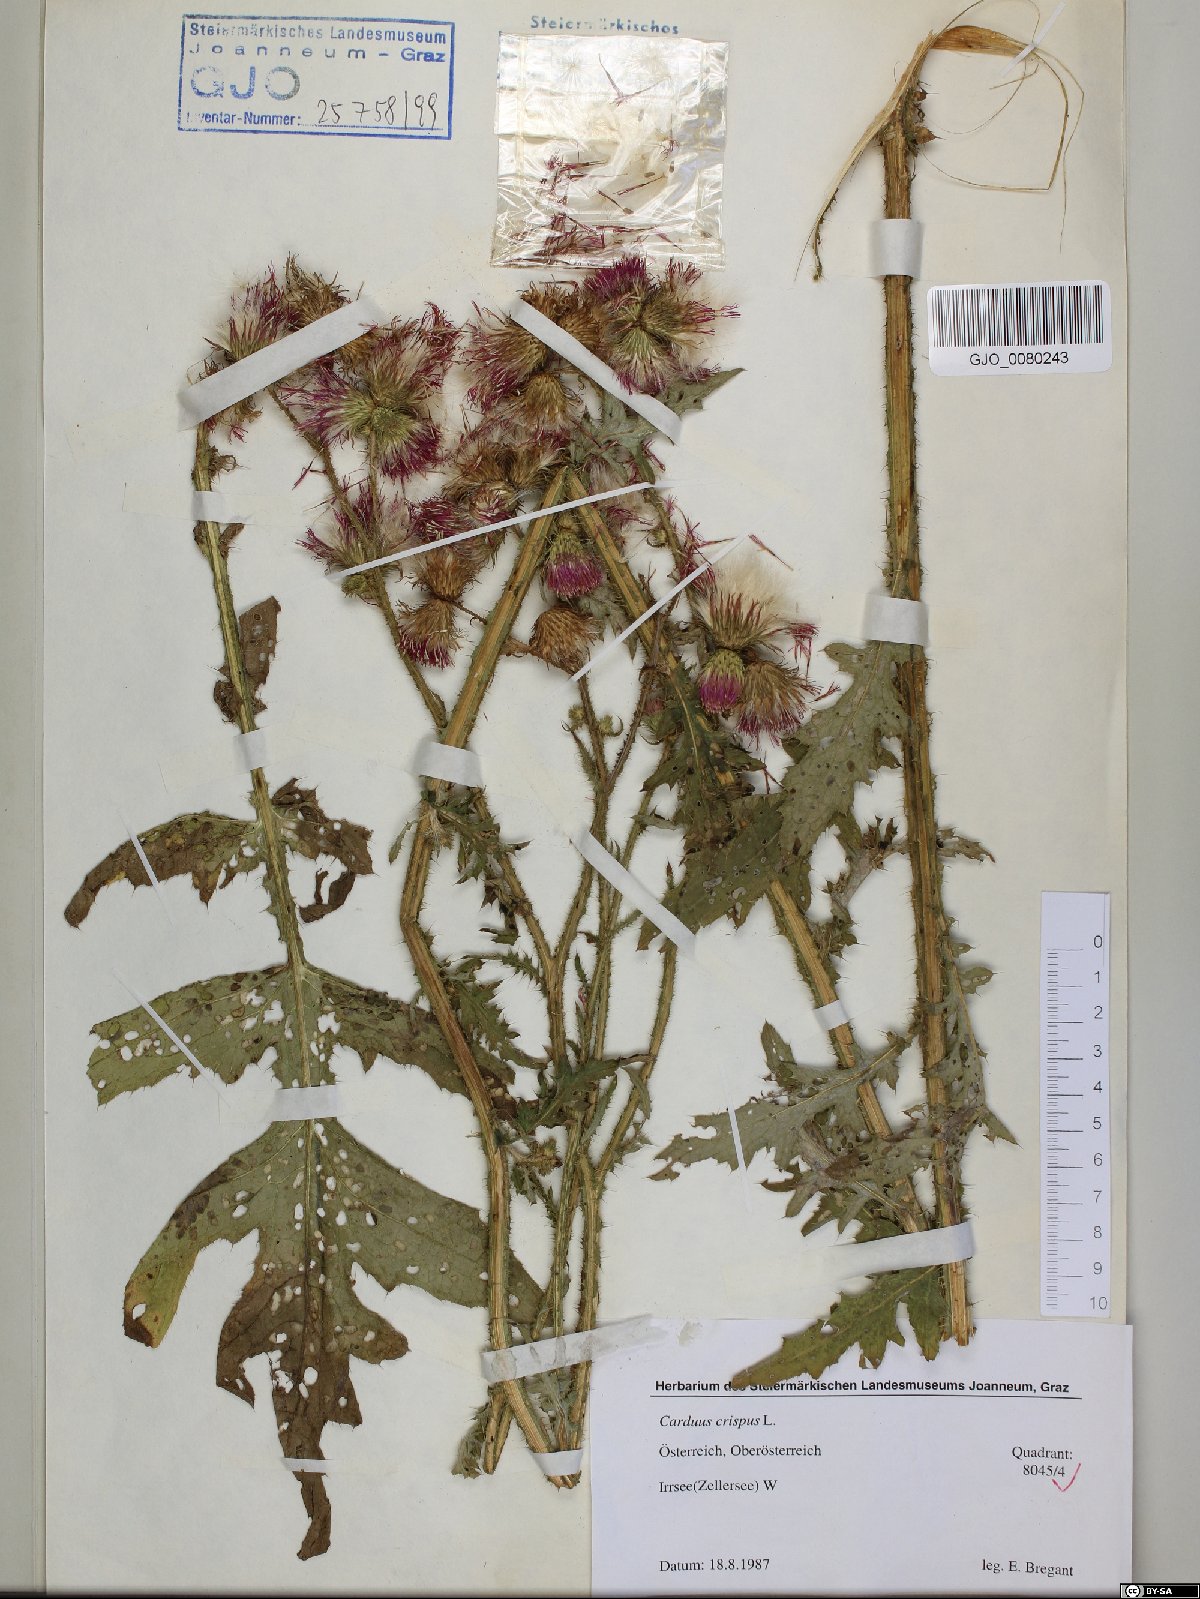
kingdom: Plantae
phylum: Tracheophyta
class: Magnoliopsida
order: Asterales
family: Asteraceae
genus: Carduus
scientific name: Carduus crispus
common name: Welted thistle
